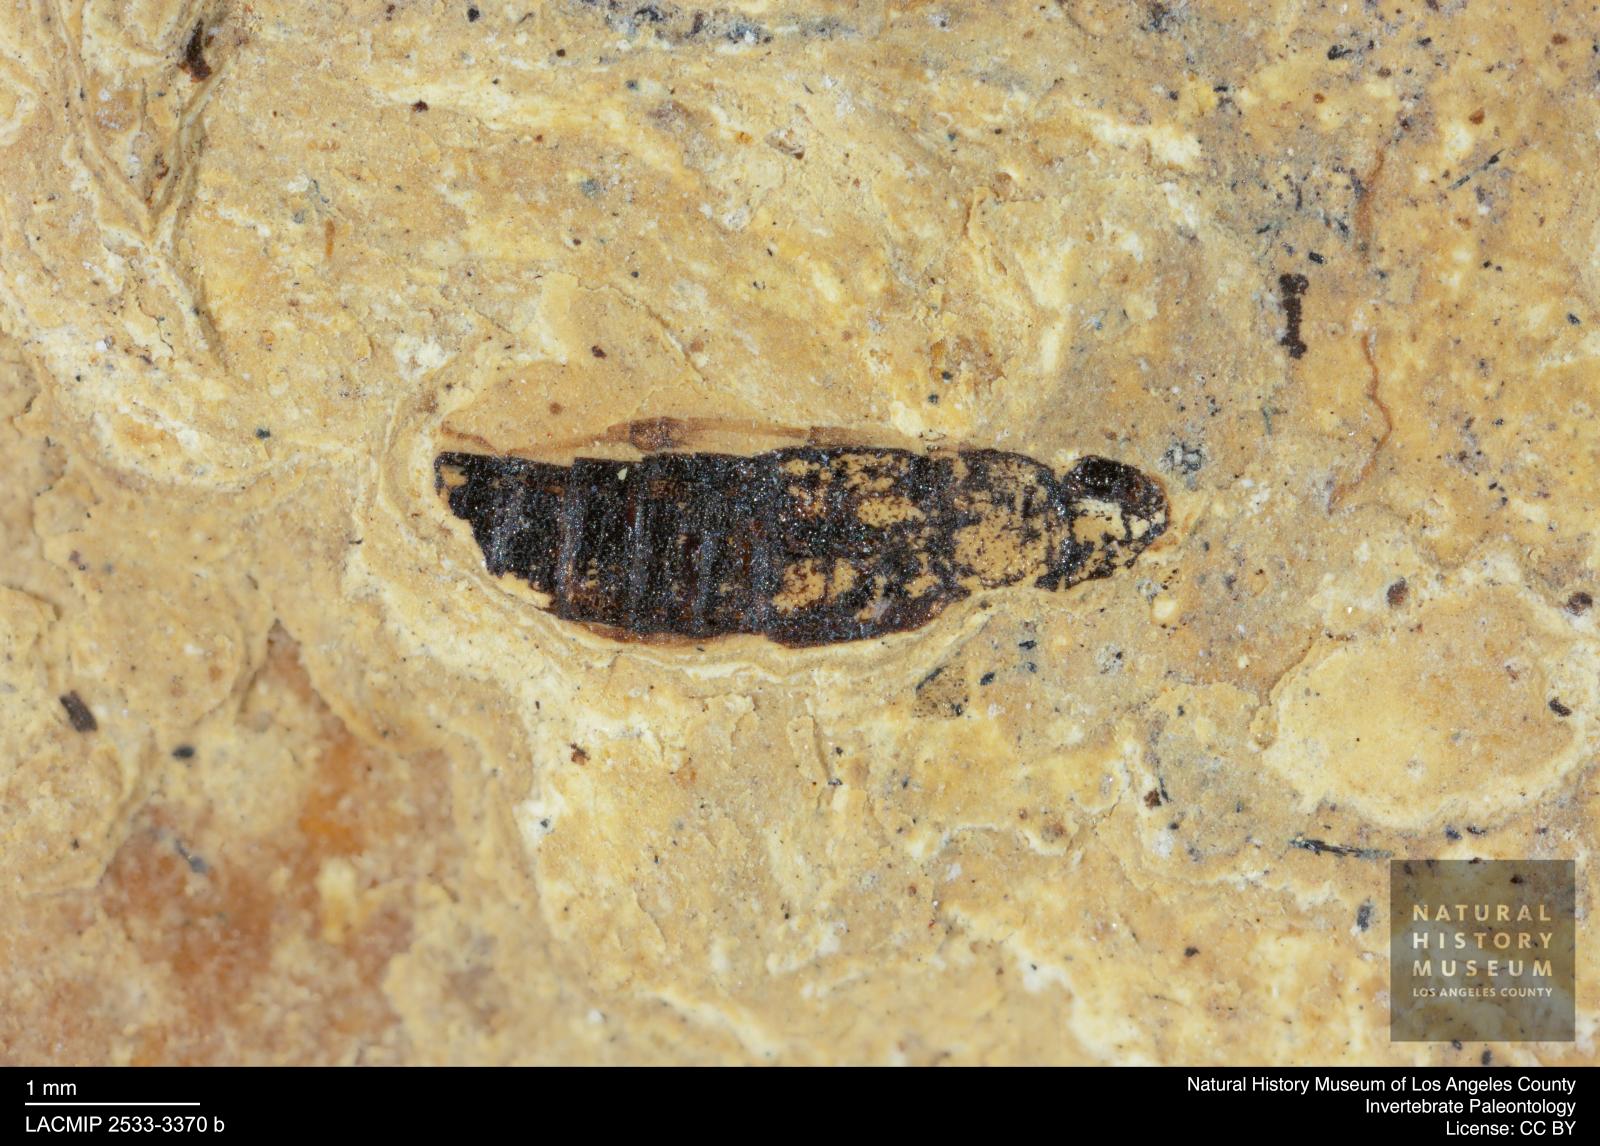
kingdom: Animalia
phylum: Arthropoda
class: Insecta
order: Coleoptera
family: Staphylinidae
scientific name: Staphylinidae
